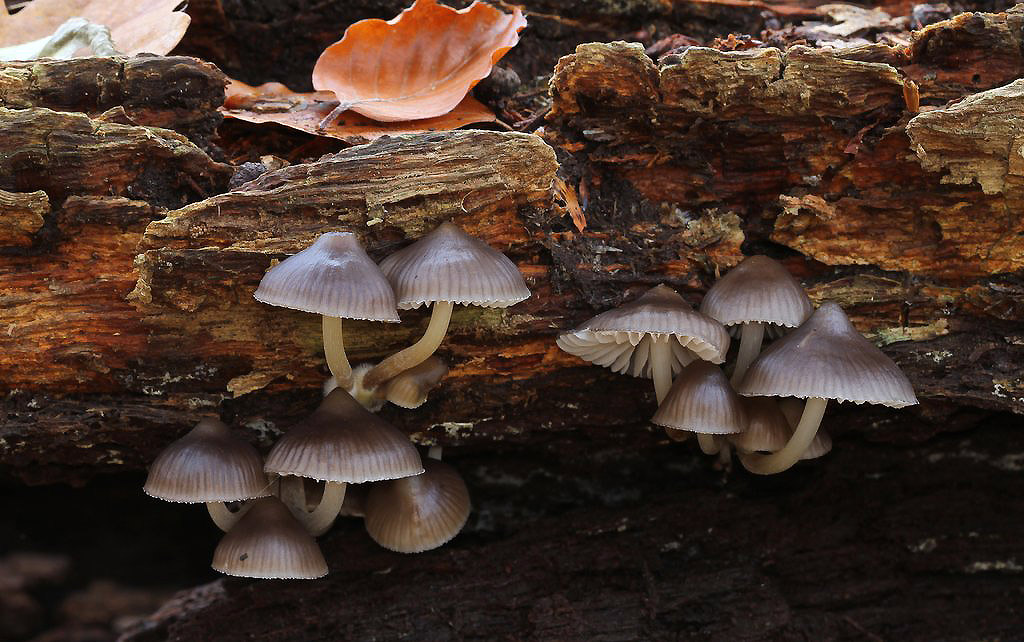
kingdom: Fungi
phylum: Basidiomycota
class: Agaricomycetes
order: Agaricales
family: Mycenaceae
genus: Mycena
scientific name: Mycena inclinata
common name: nikkende huesvamp
